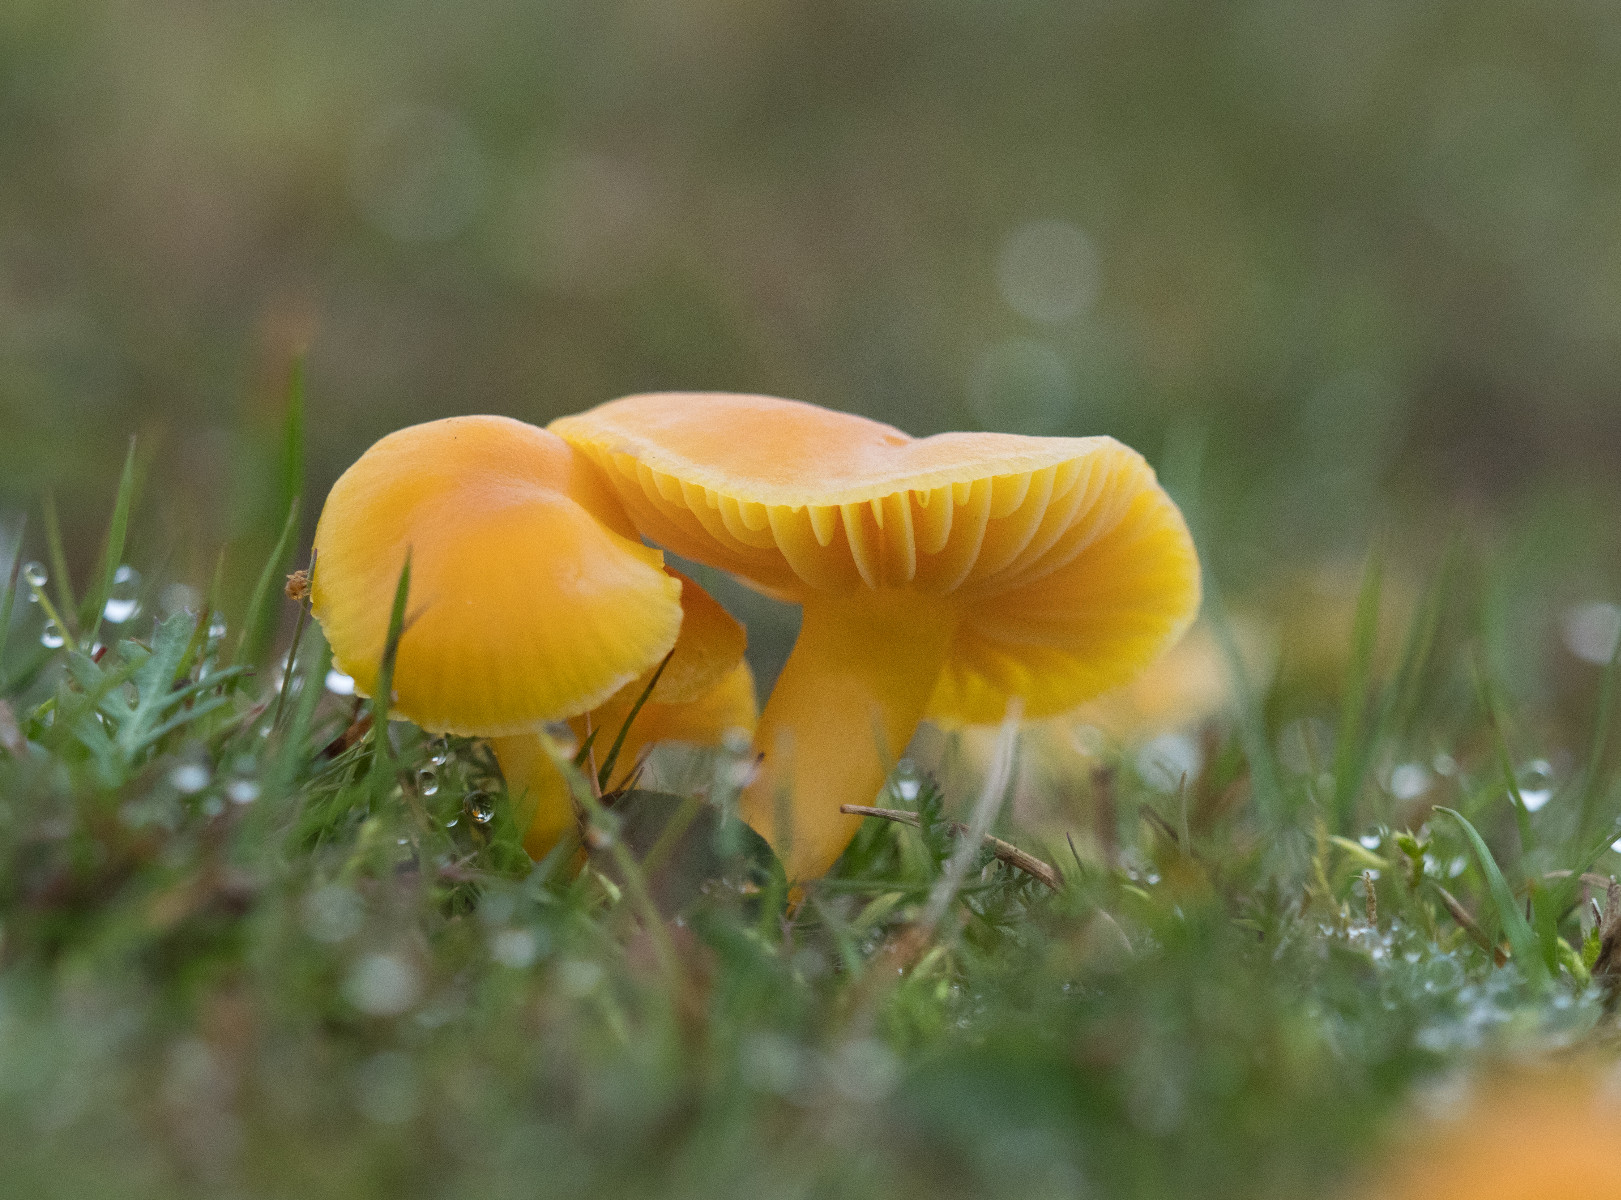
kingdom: Fungi
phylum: Basidiomycota
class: Agaricomycetes
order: Agaricales
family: Hygrophoraceae
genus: Hygrocybe
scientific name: Hygrocybe ceracea
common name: voksgul vokshat
